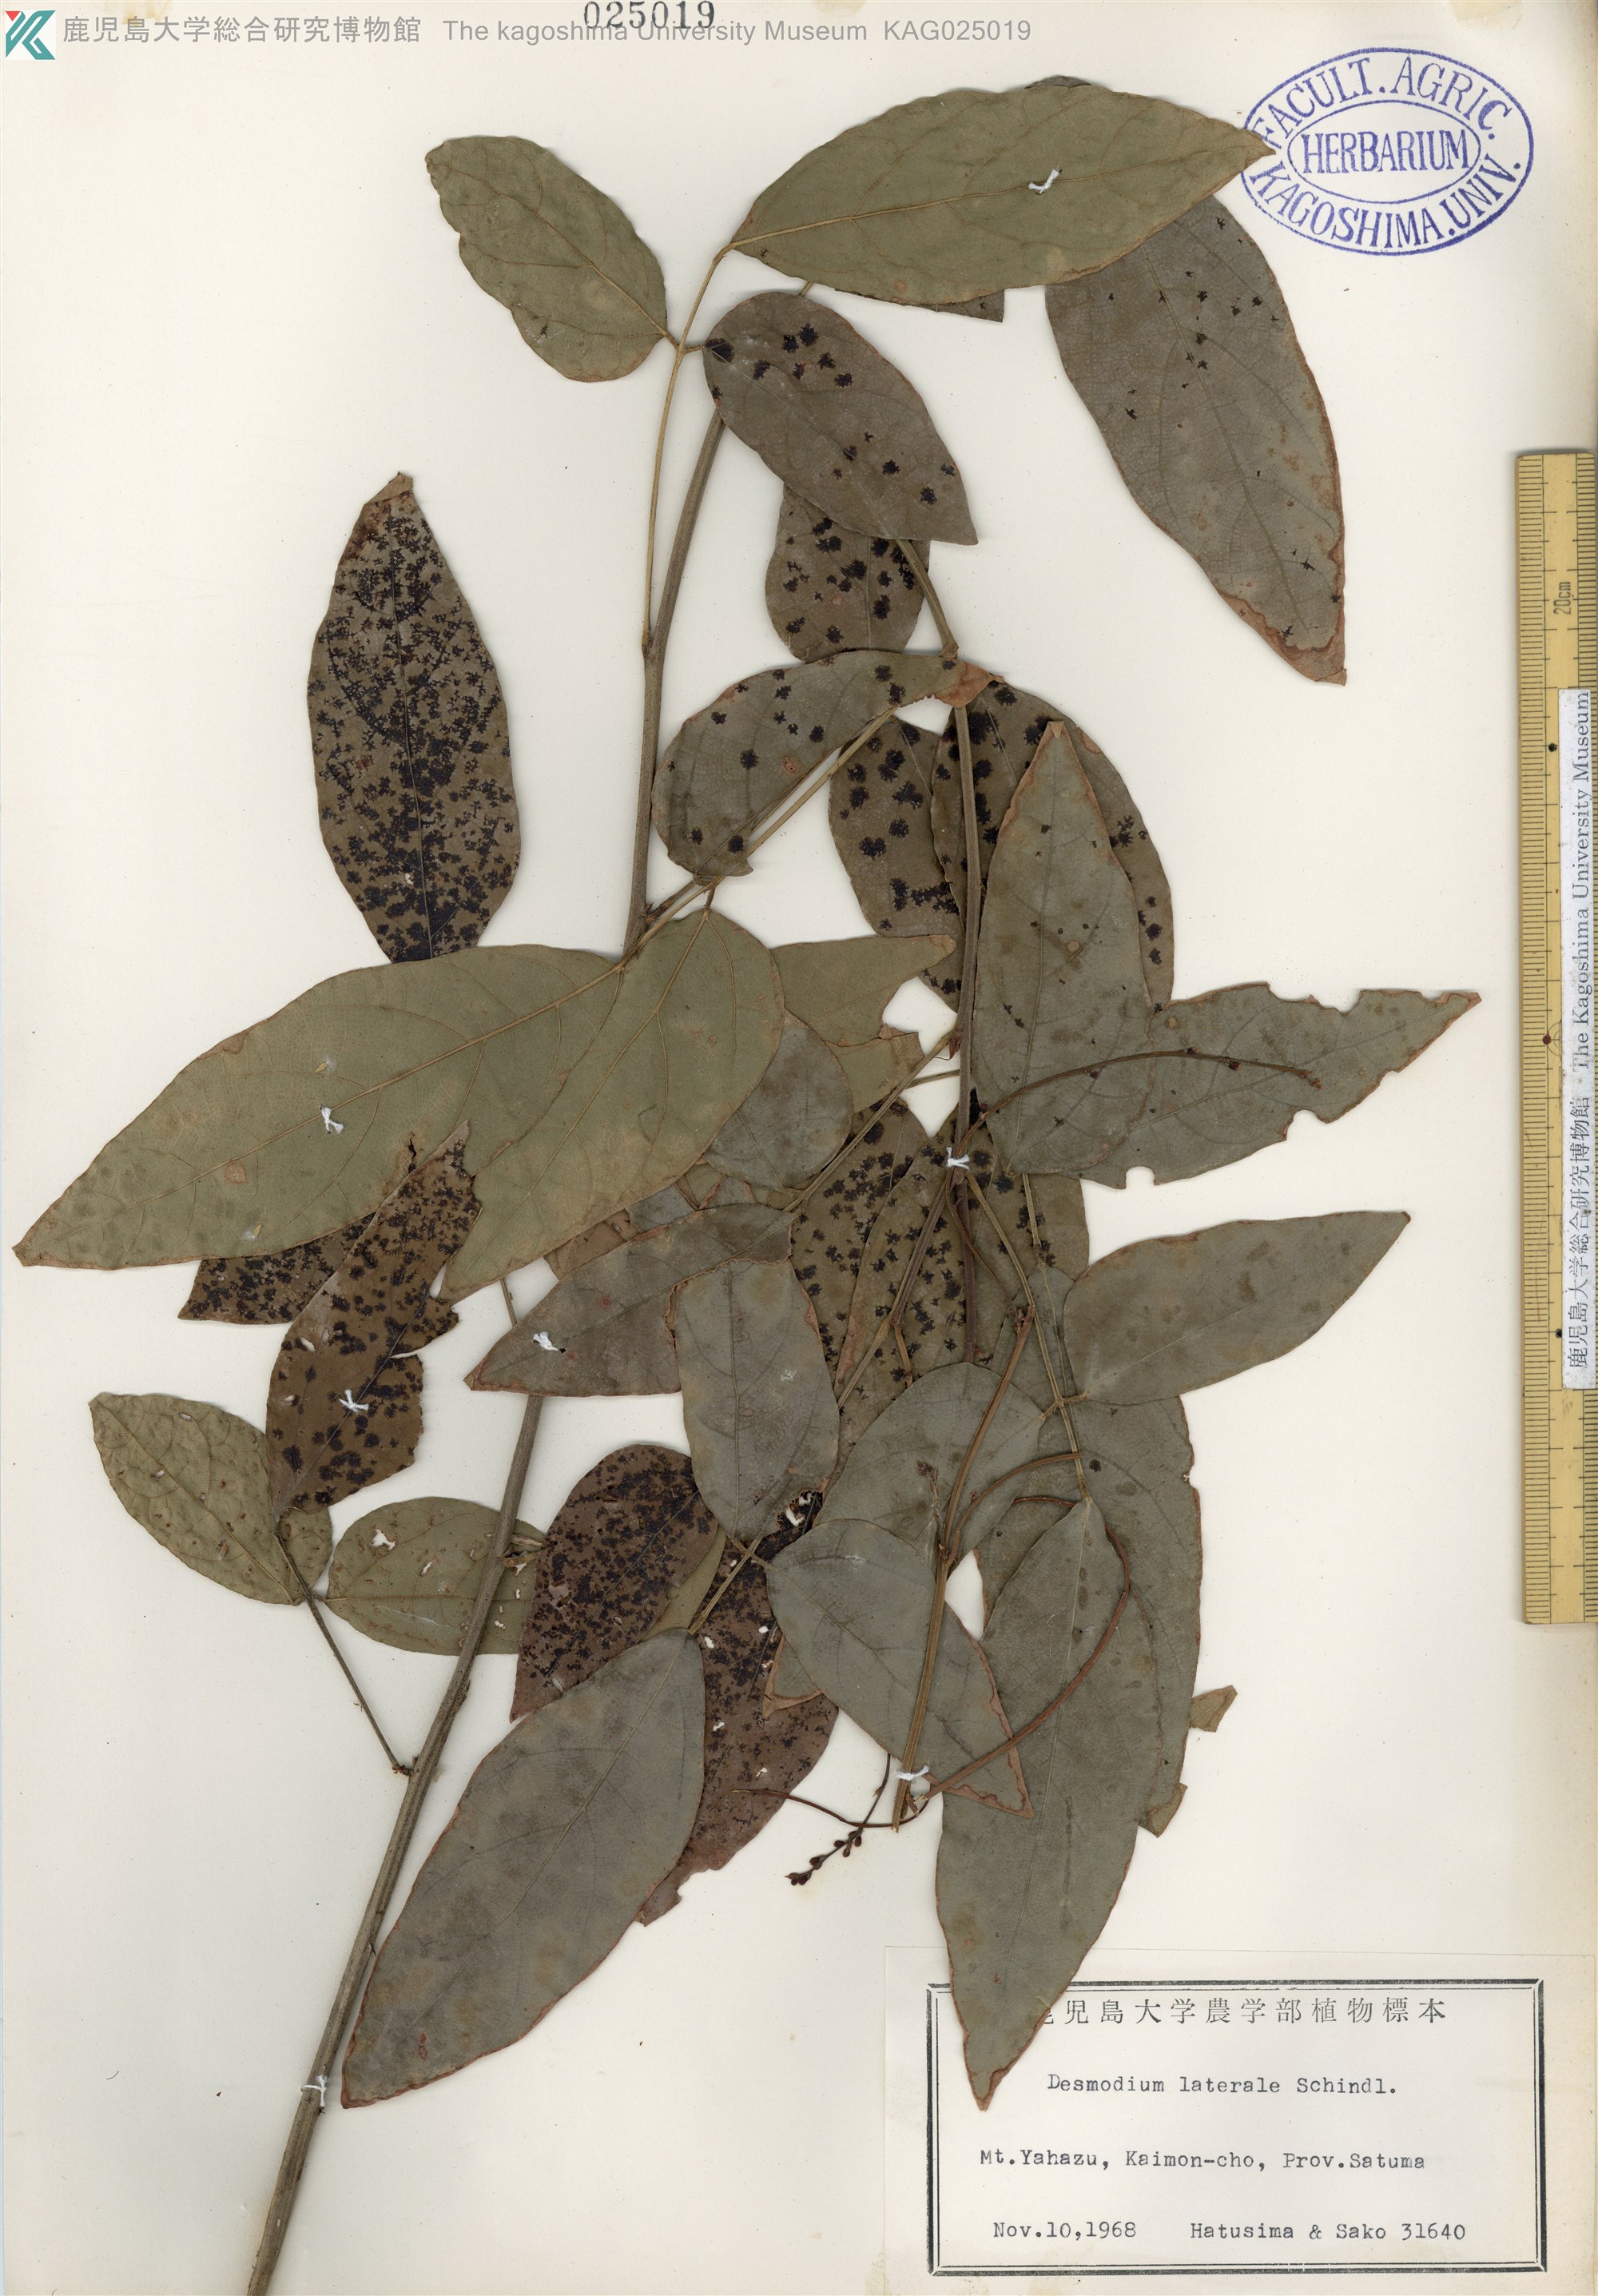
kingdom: Plantae
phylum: Tracheophyta
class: Magnoliopsida
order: Fabales
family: Fabaceae
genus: Hylodesmum
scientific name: Hylodesmum laterale
